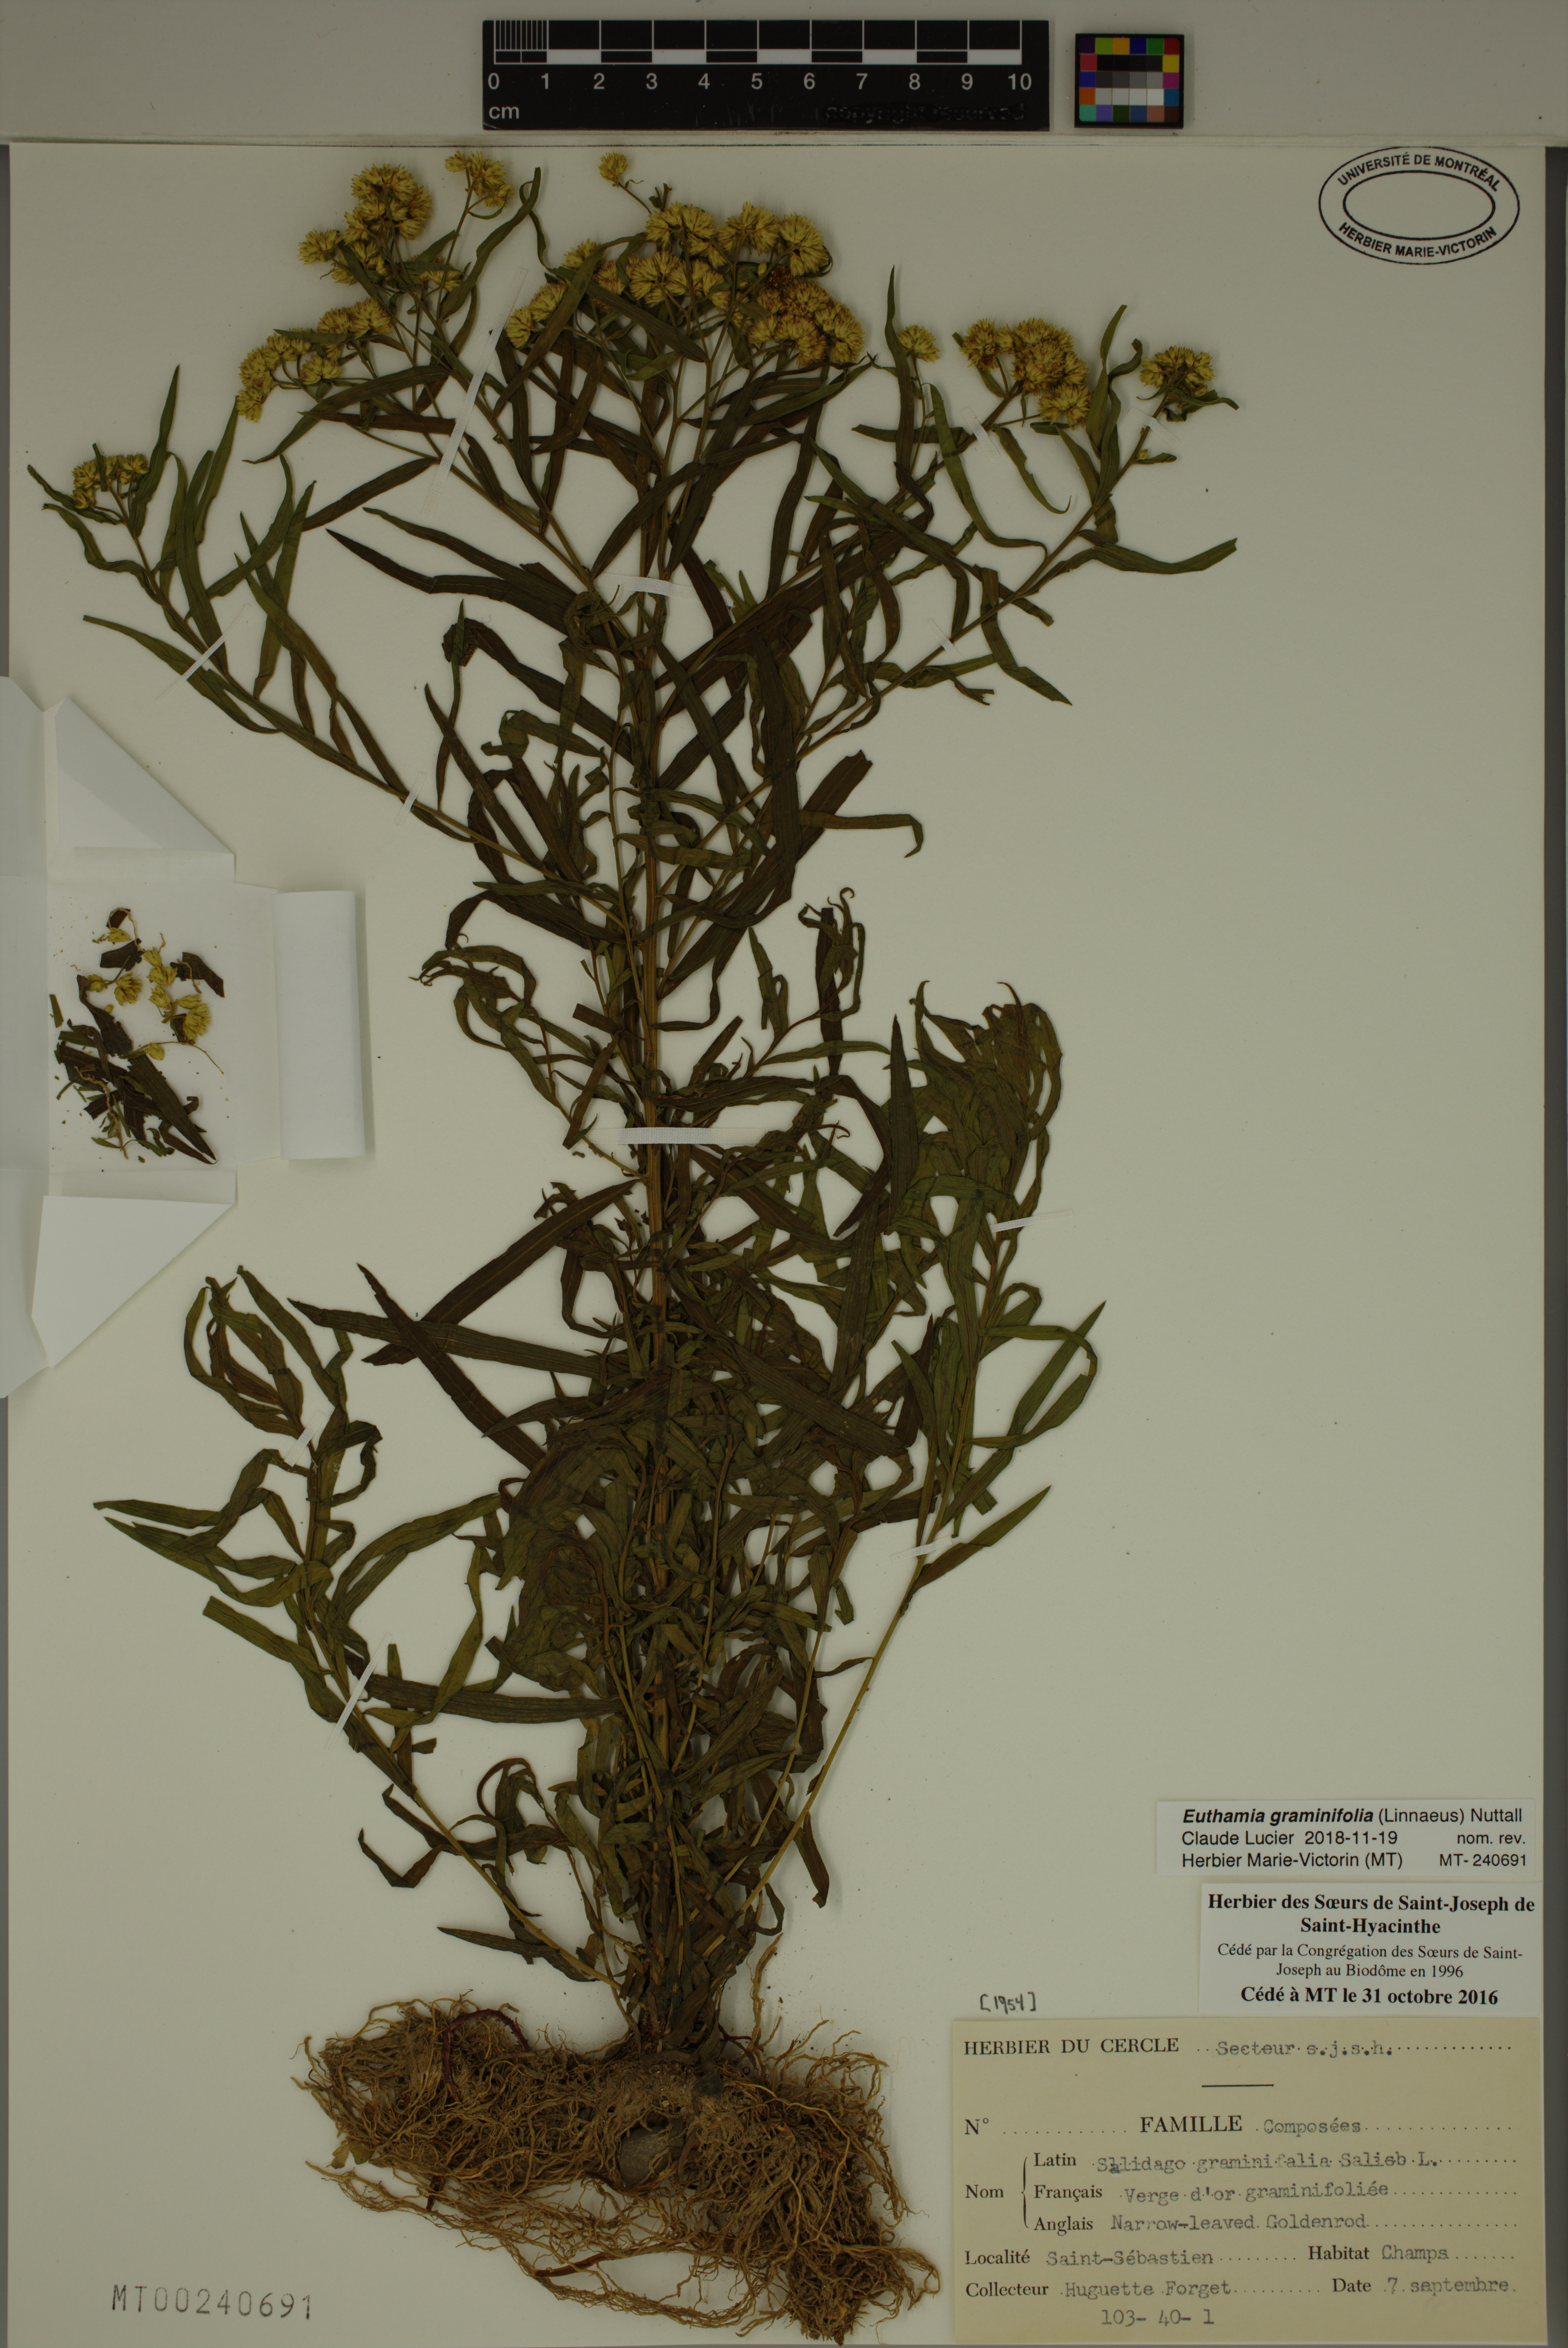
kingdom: Plantae
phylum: Tracheophyta
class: Magnoliopsida
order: Asterales
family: Asteraceae
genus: Euthamia
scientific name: Euthamia graminifolia
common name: Common goldentop
